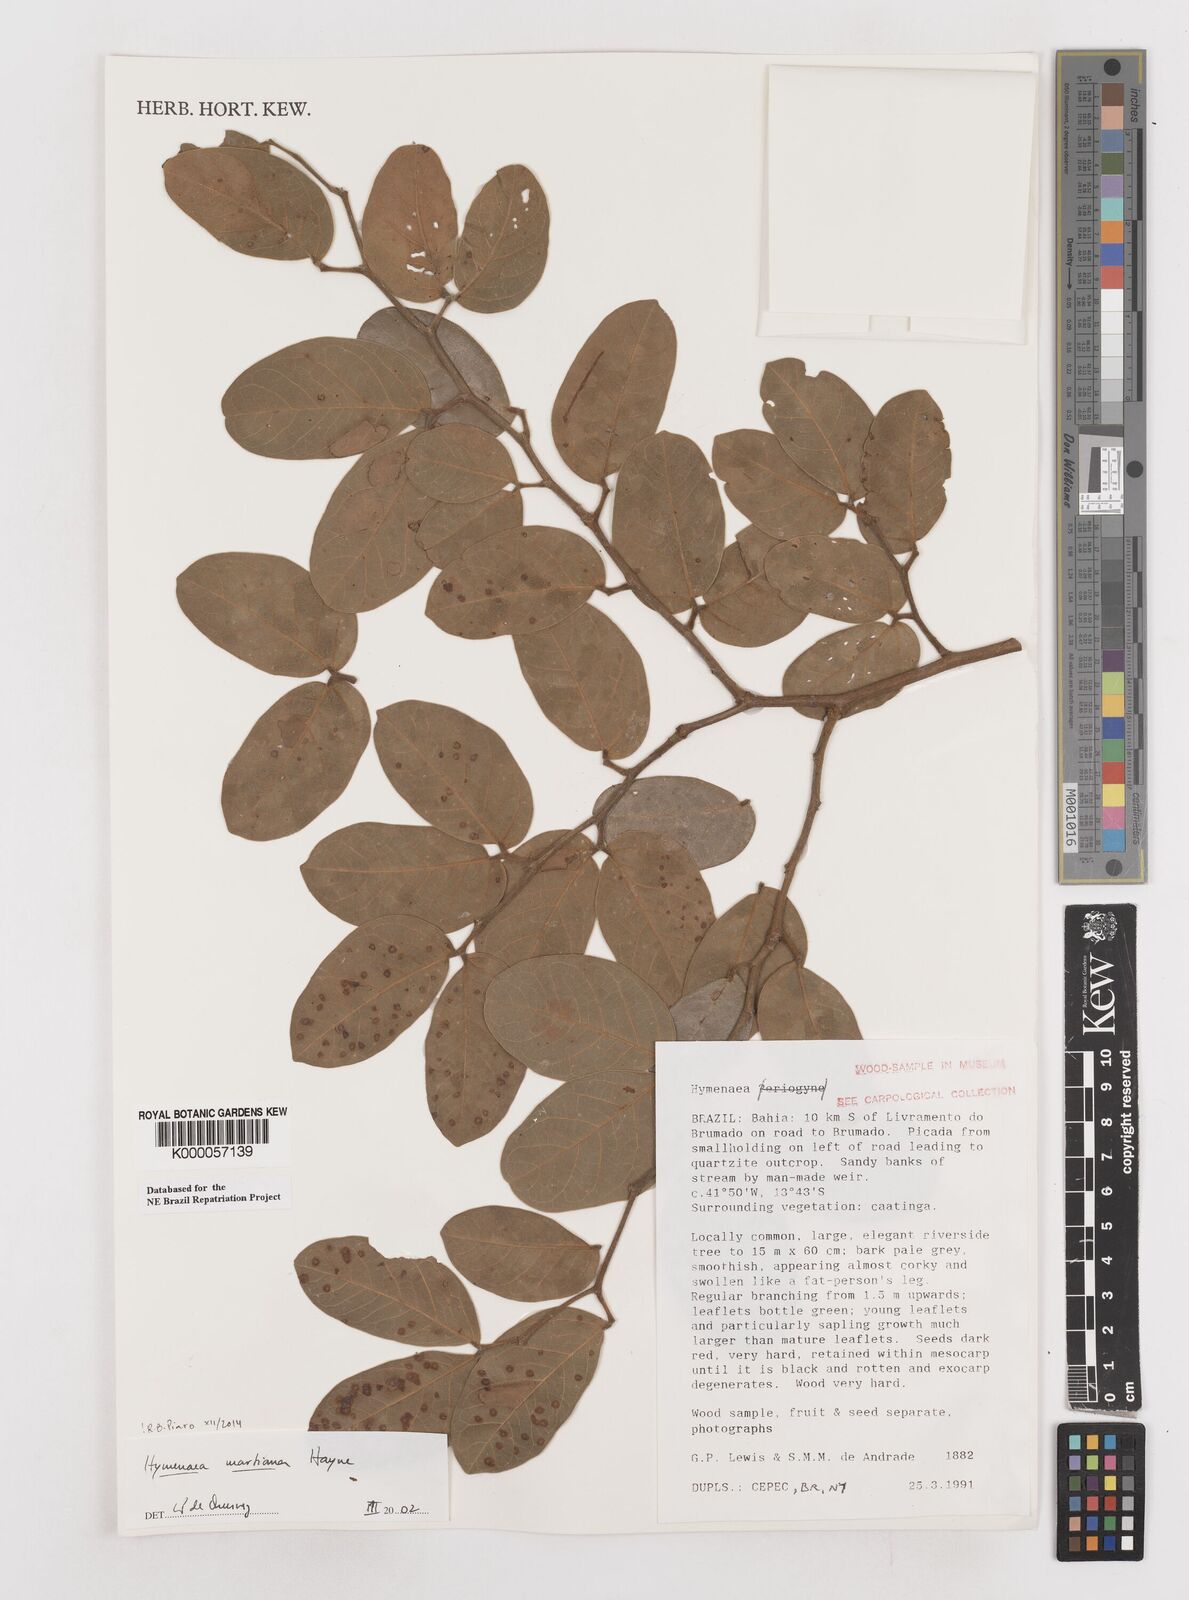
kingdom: Plantae
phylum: Tracheophyta
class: Magnoliopsida
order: Fabales
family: Fabaceae
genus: Hymenaea
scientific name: Hymenaea martiana
